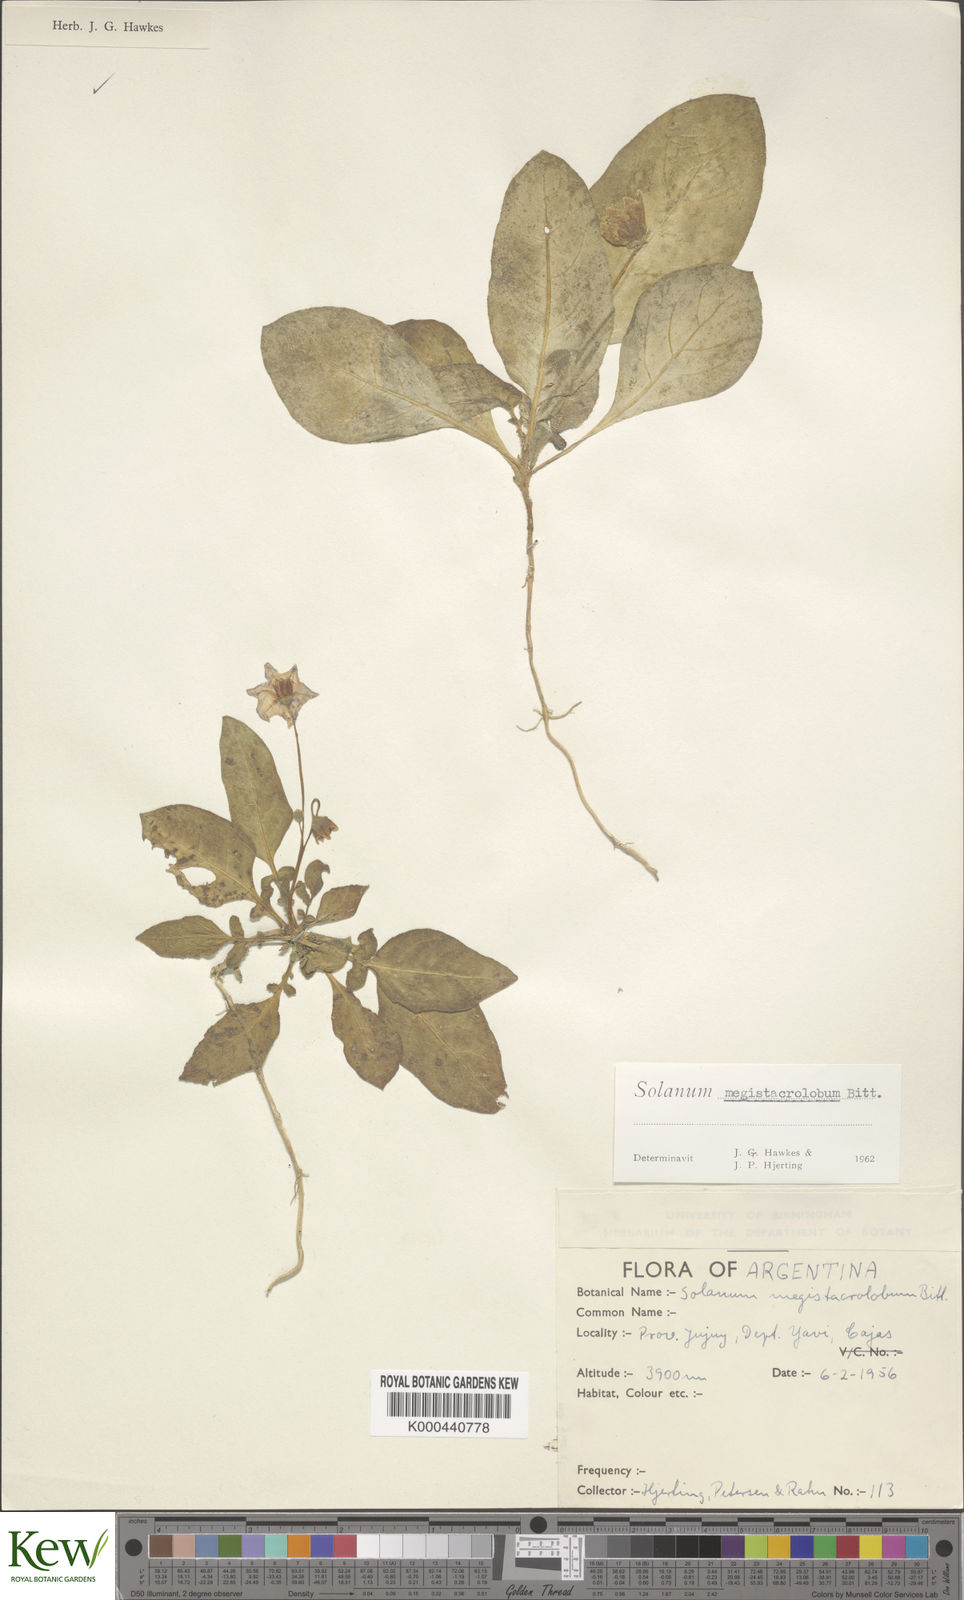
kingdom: Plantae
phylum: Tracheophyta
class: Magnoliopsida
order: Solanales
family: Solanaceae
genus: Solanum
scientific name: Solanum boliviense
